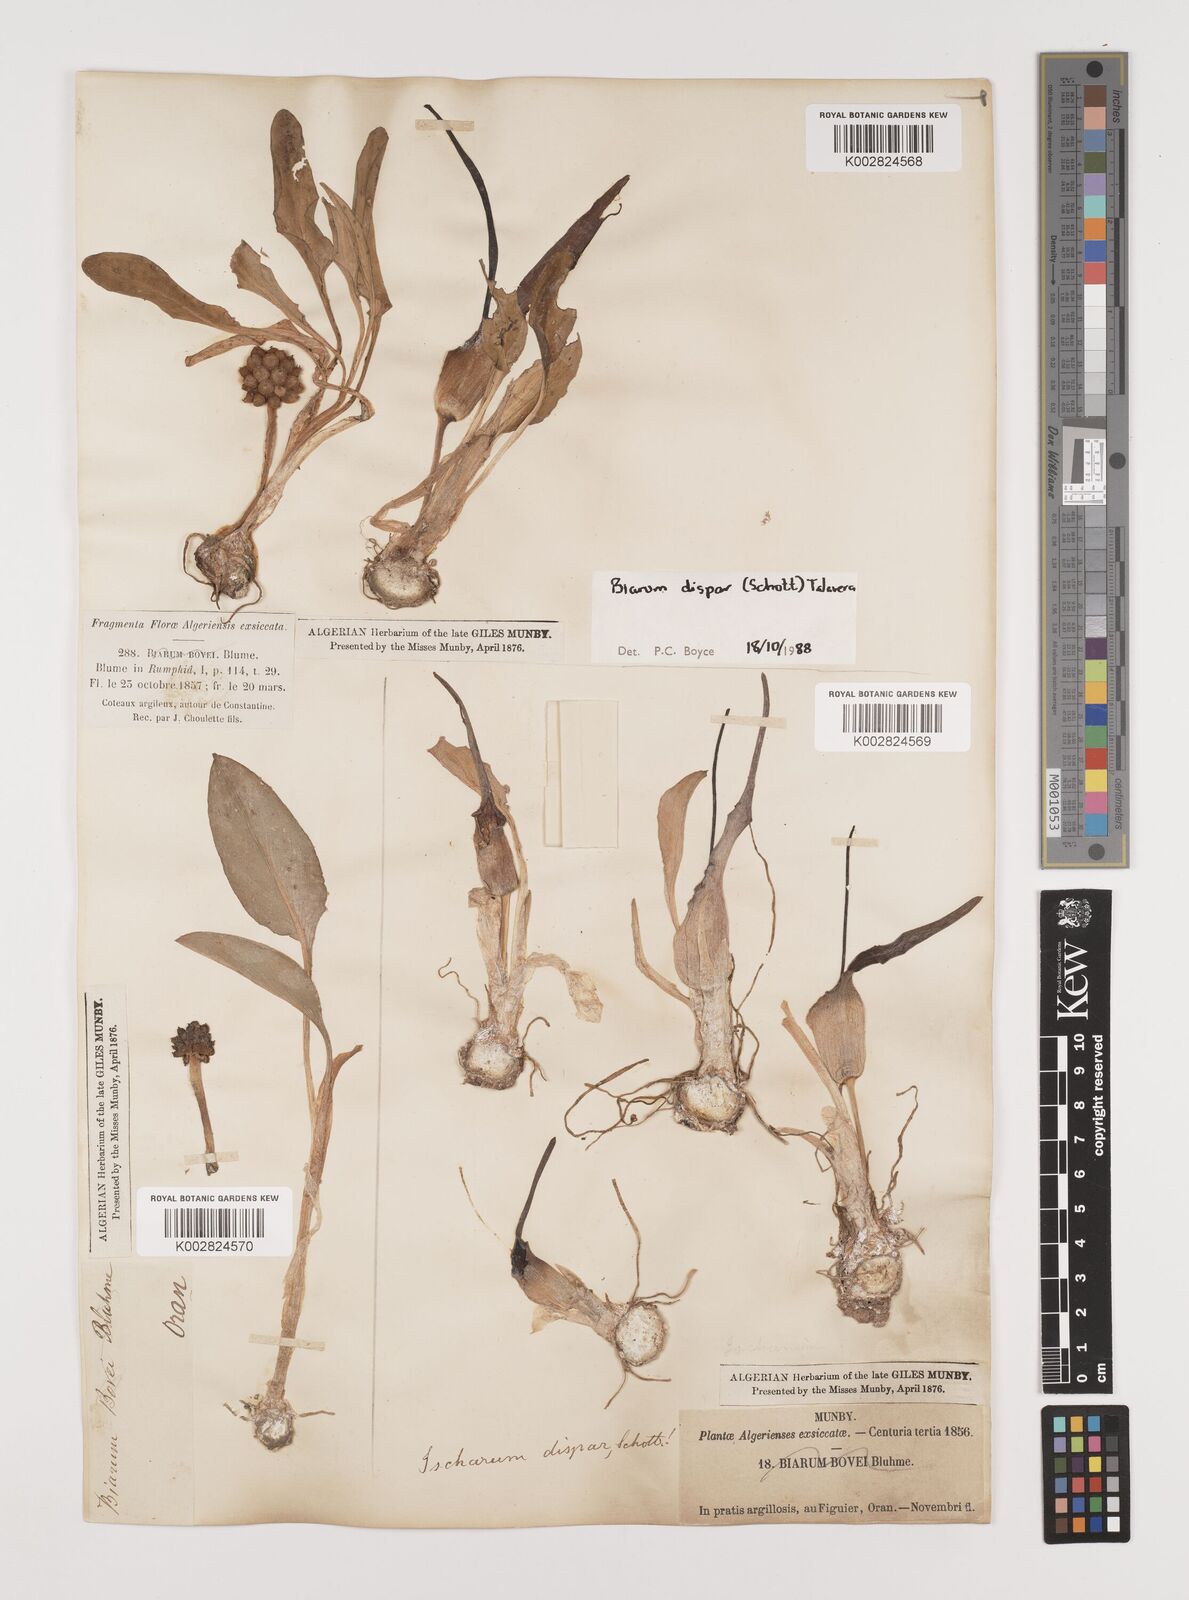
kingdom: Plantae
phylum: Tracheophyta
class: Liliopsida
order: Alismatales
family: Araceae
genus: Biarum
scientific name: Biarum dispar
